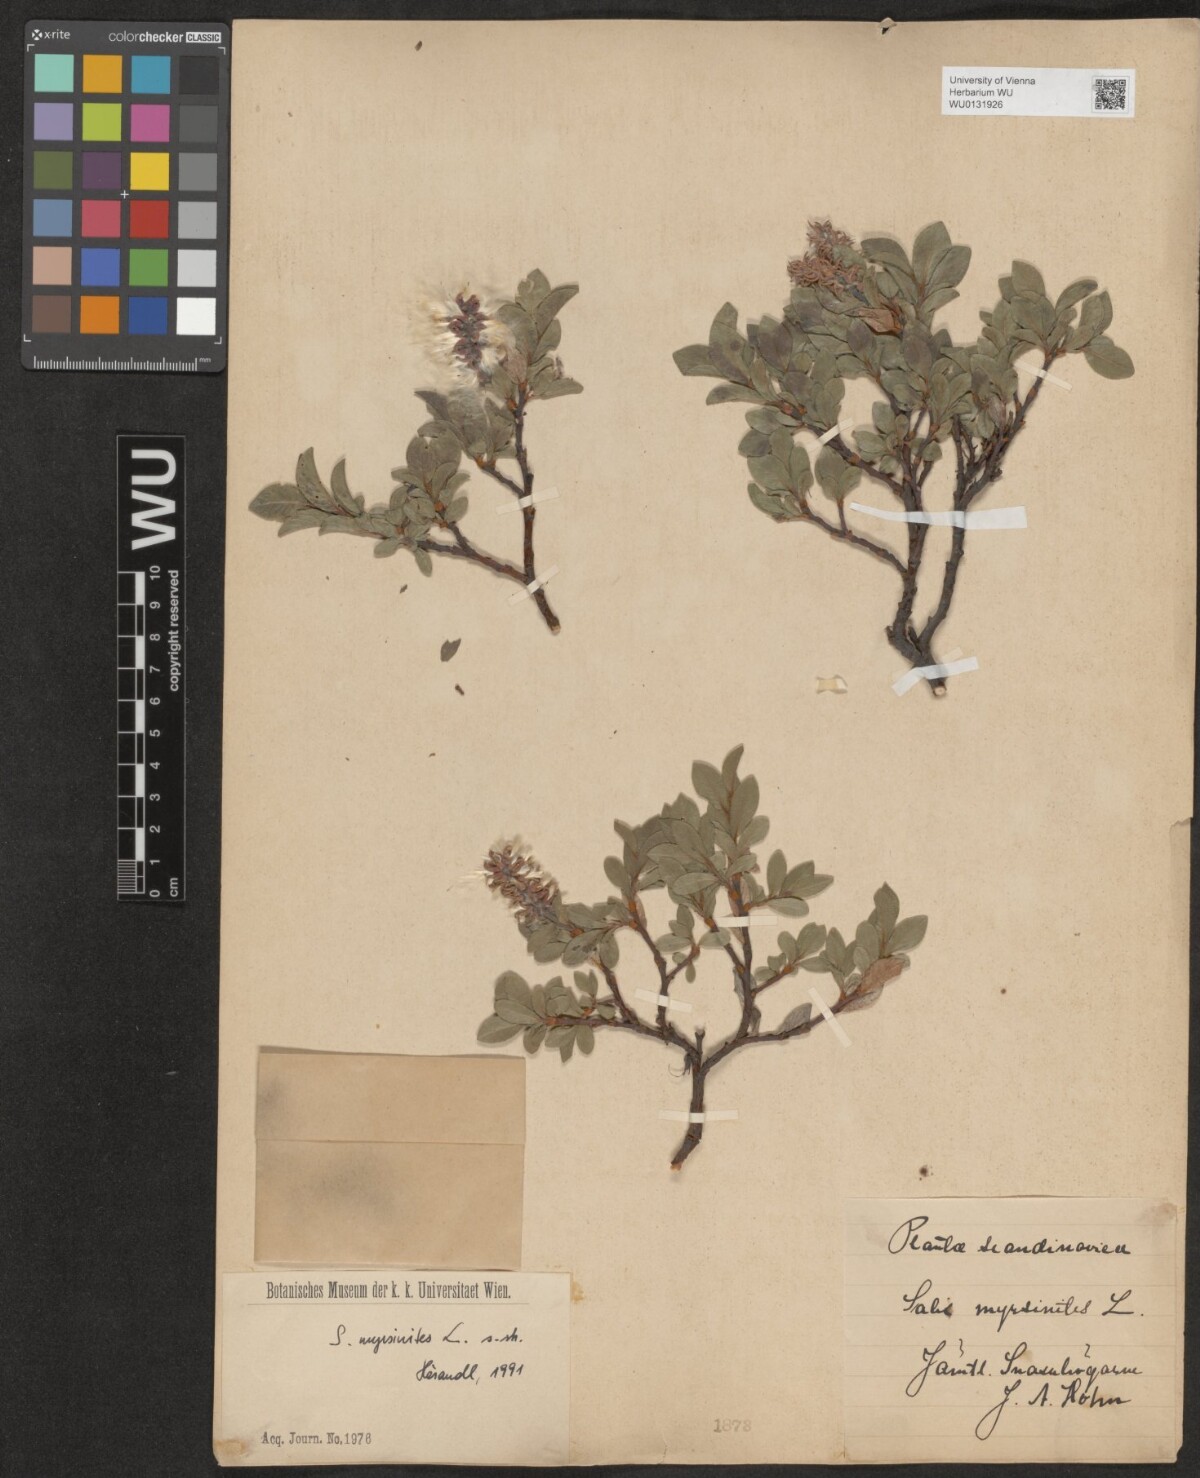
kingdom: Plantae
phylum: Tracheophyta
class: Magnoliopsida
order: Malpighiales
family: Salicaceae
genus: Salix
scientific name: Salix myrsinites
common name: Myrtle willow
